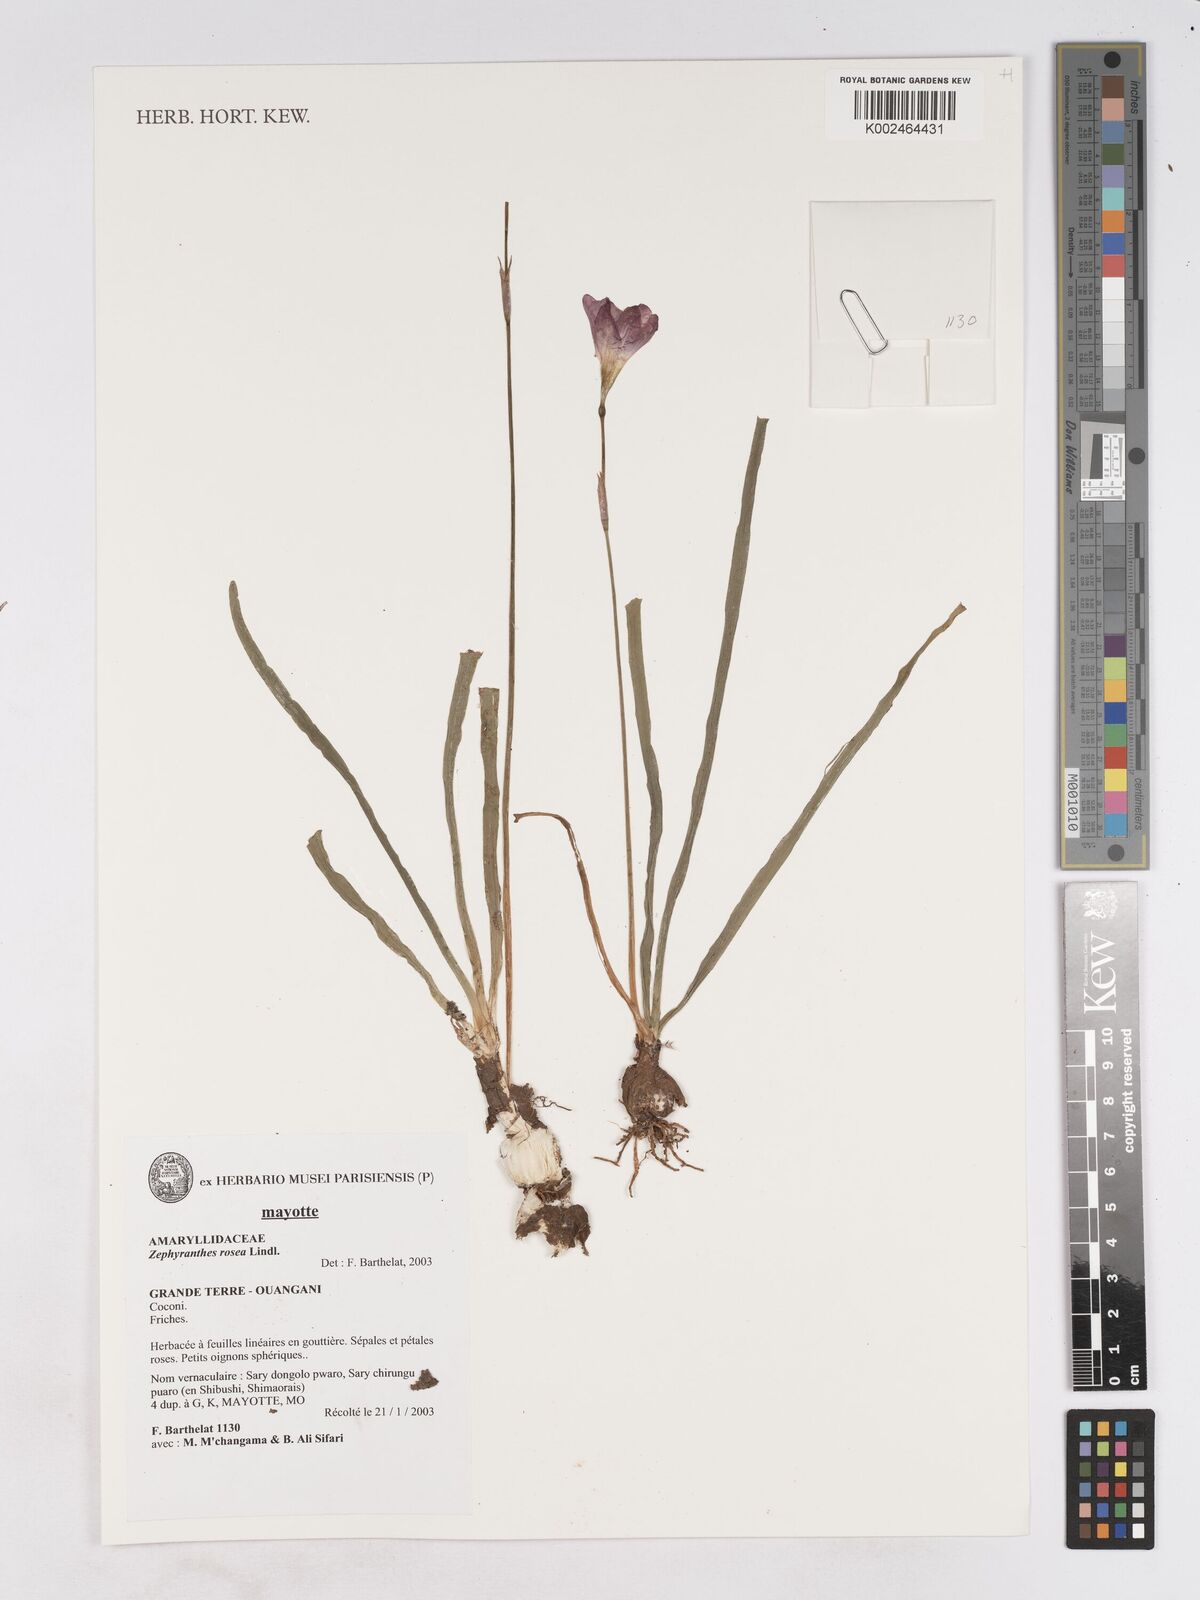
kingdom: Plantae
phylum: Tracheophyta
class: Liliopsida
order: Asparagales
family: Amaryllidaceae
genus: Zephyranthes
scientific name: Zephyranthes rosea
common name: Cuban zephyrlily
